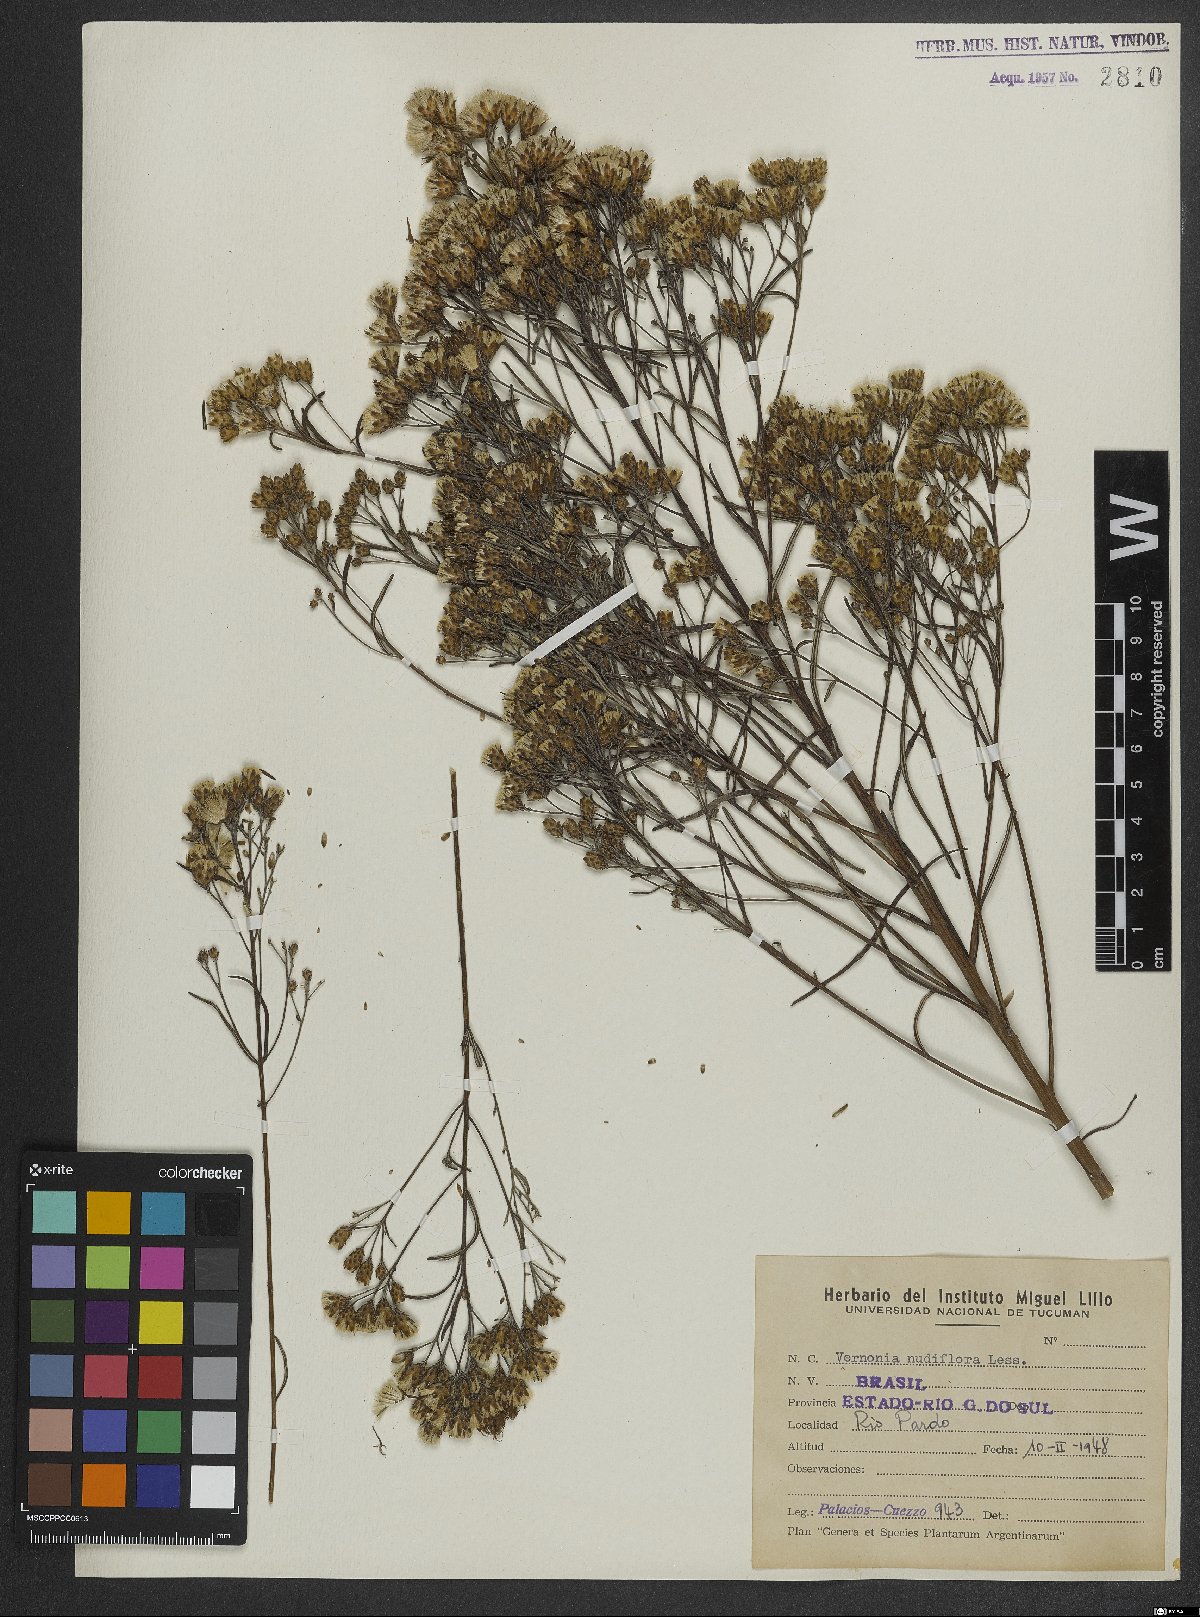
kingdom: Plantae
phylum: Tracheophyta
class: Magnoliopsida
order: Asterales
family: Asteraceae
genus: Vernonanthura
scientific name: Vernonanthura nudiflora
